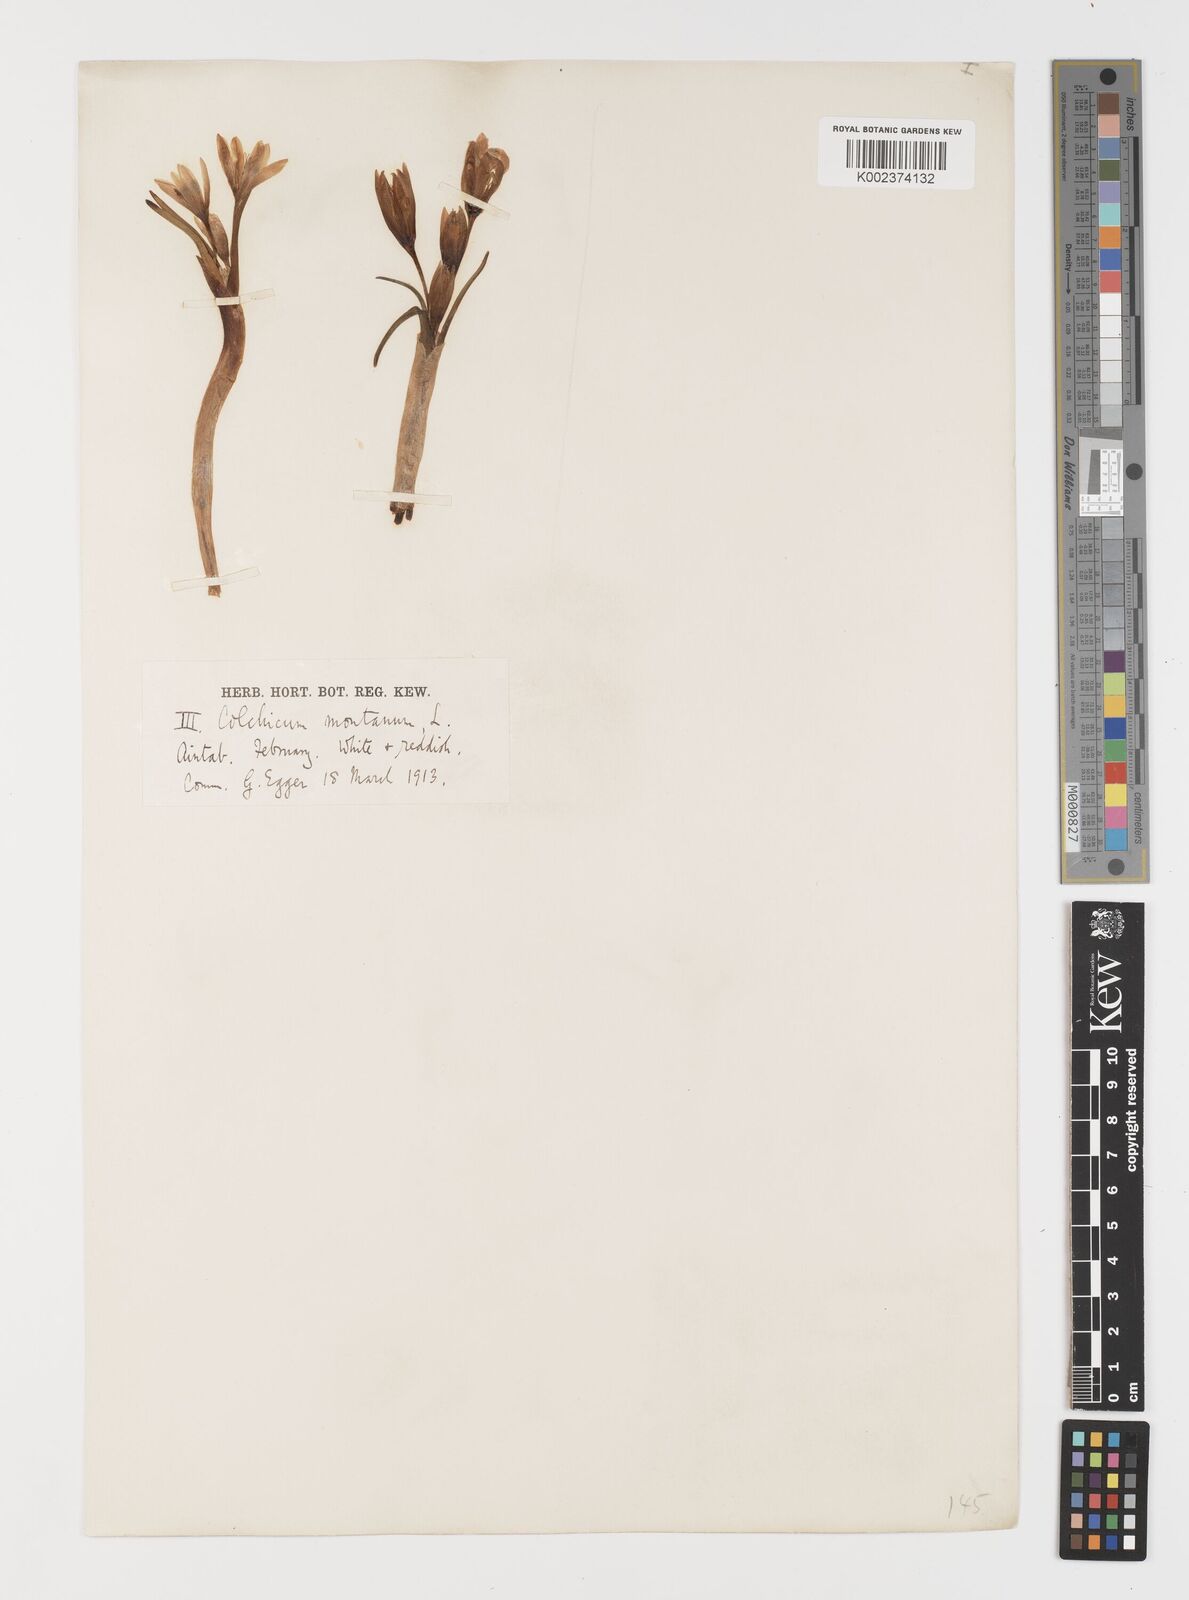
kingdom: Plantae
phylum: Tracheophyta
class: Liliopsida
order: Asparagales
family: Iridaceae
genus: Iris
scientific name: Iris caucasica
